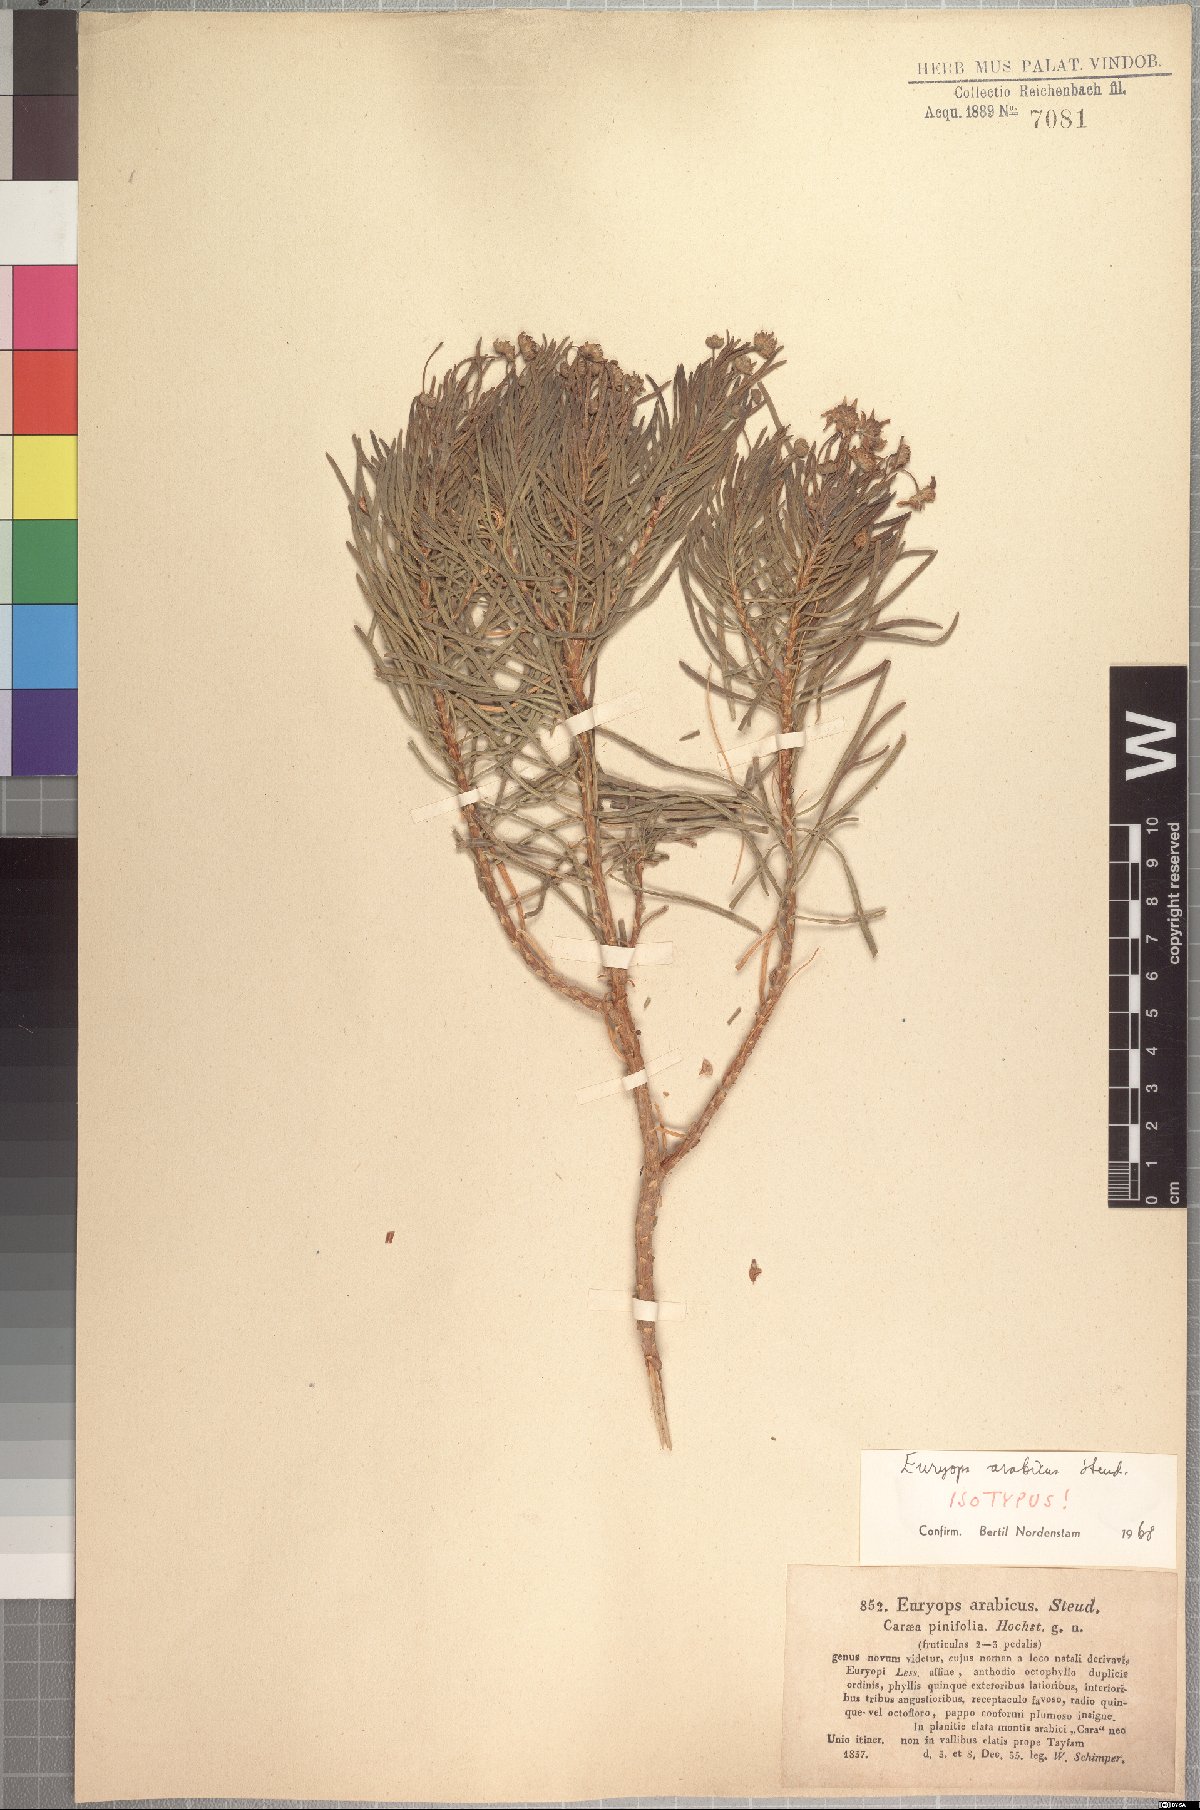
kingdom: Plantae
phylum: Tracheophyta
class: Magnoliopsida
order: Asterales
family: Asteraceae
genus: Euryops
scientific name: Euryops arabicus
